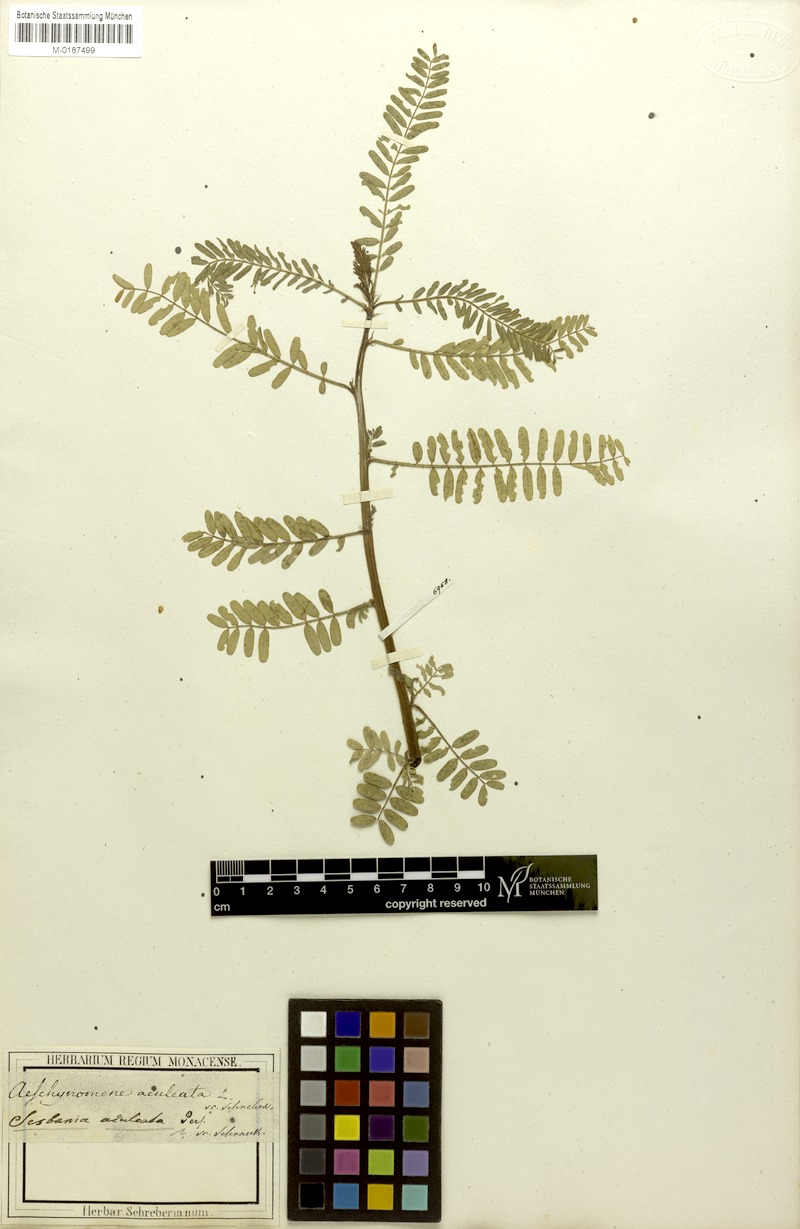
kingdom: Plantae
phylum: Tracheophyta
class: Magnoliopsida
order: Fabales
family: Fabaceae
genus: Sesbania
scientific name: Sesbania bispinosa
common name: Sesbania pea
